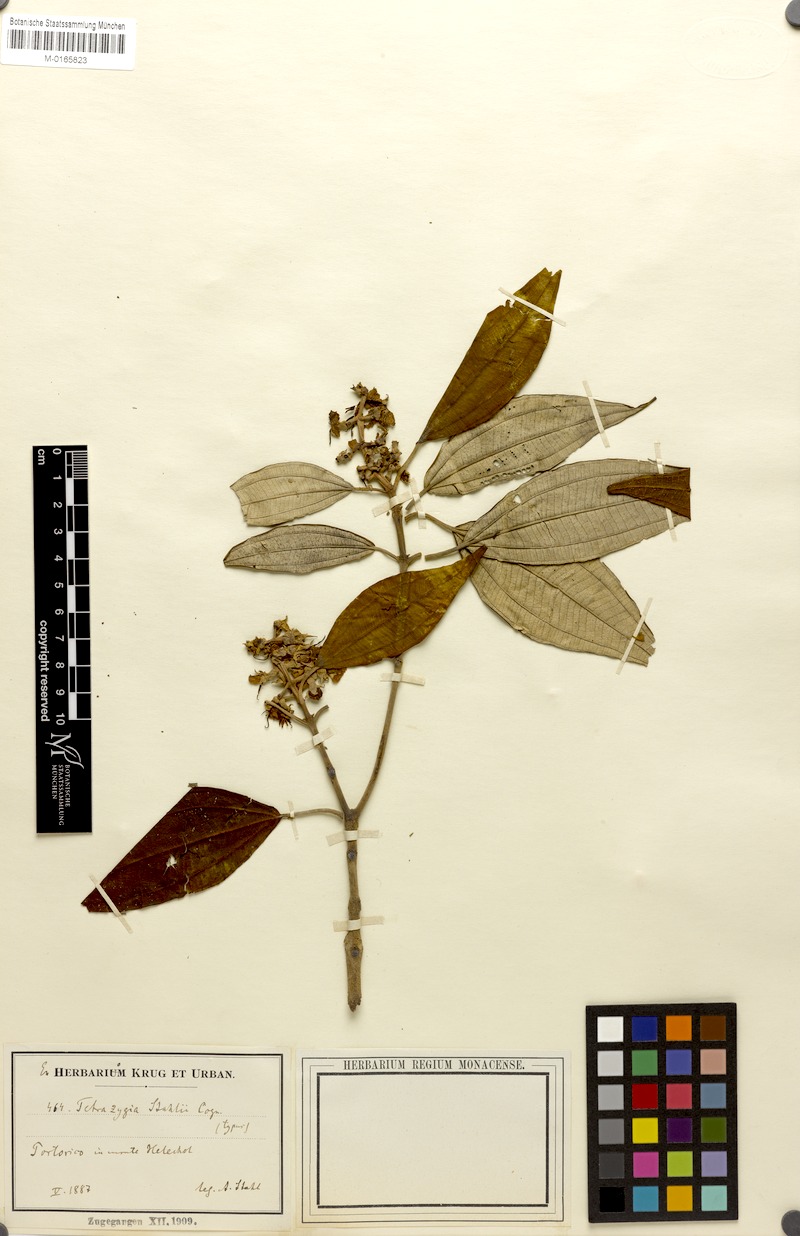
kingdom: Plantae
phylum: Tracheophyta
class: Magnoliopsida
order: Myrtales
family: Melastomataceae
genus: Miconia
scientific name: Miconia urbanii
